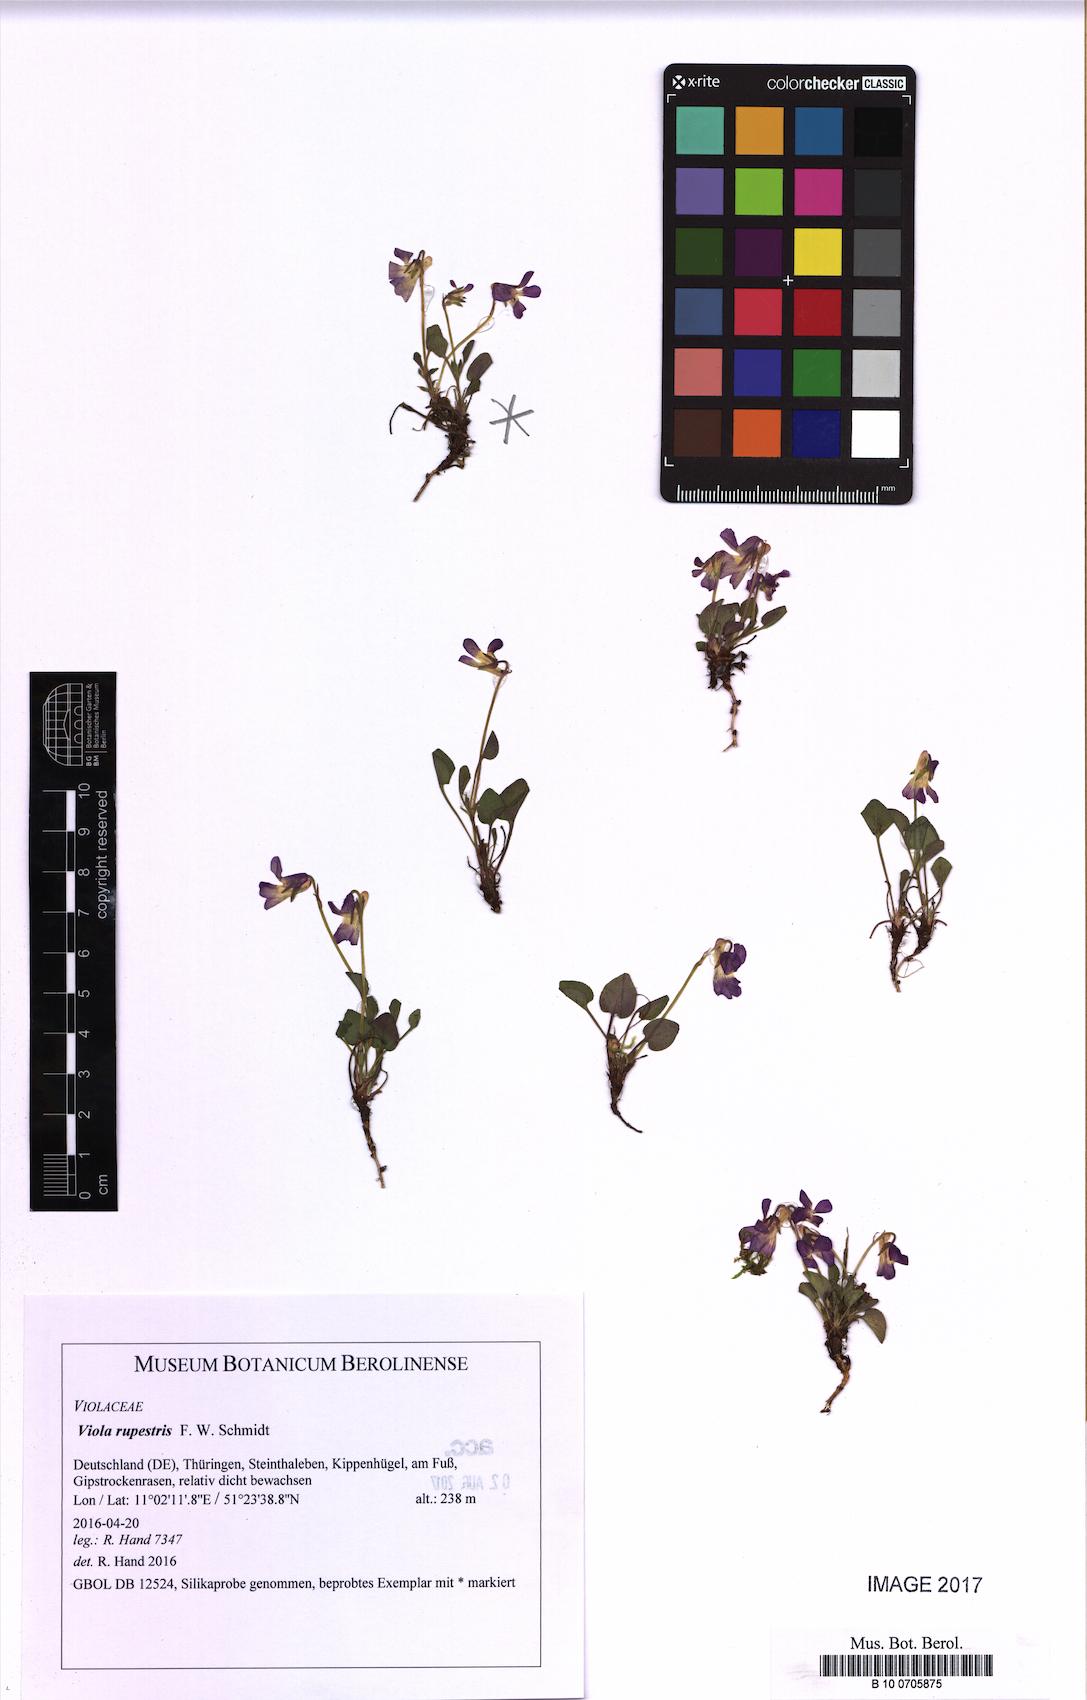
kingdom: Plantae
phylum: Tracheophyta
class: Magnoliopsida
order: Malpighiales
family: Violaceae
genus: Viola
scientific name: Viola rupestris
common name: Teesdale violet
